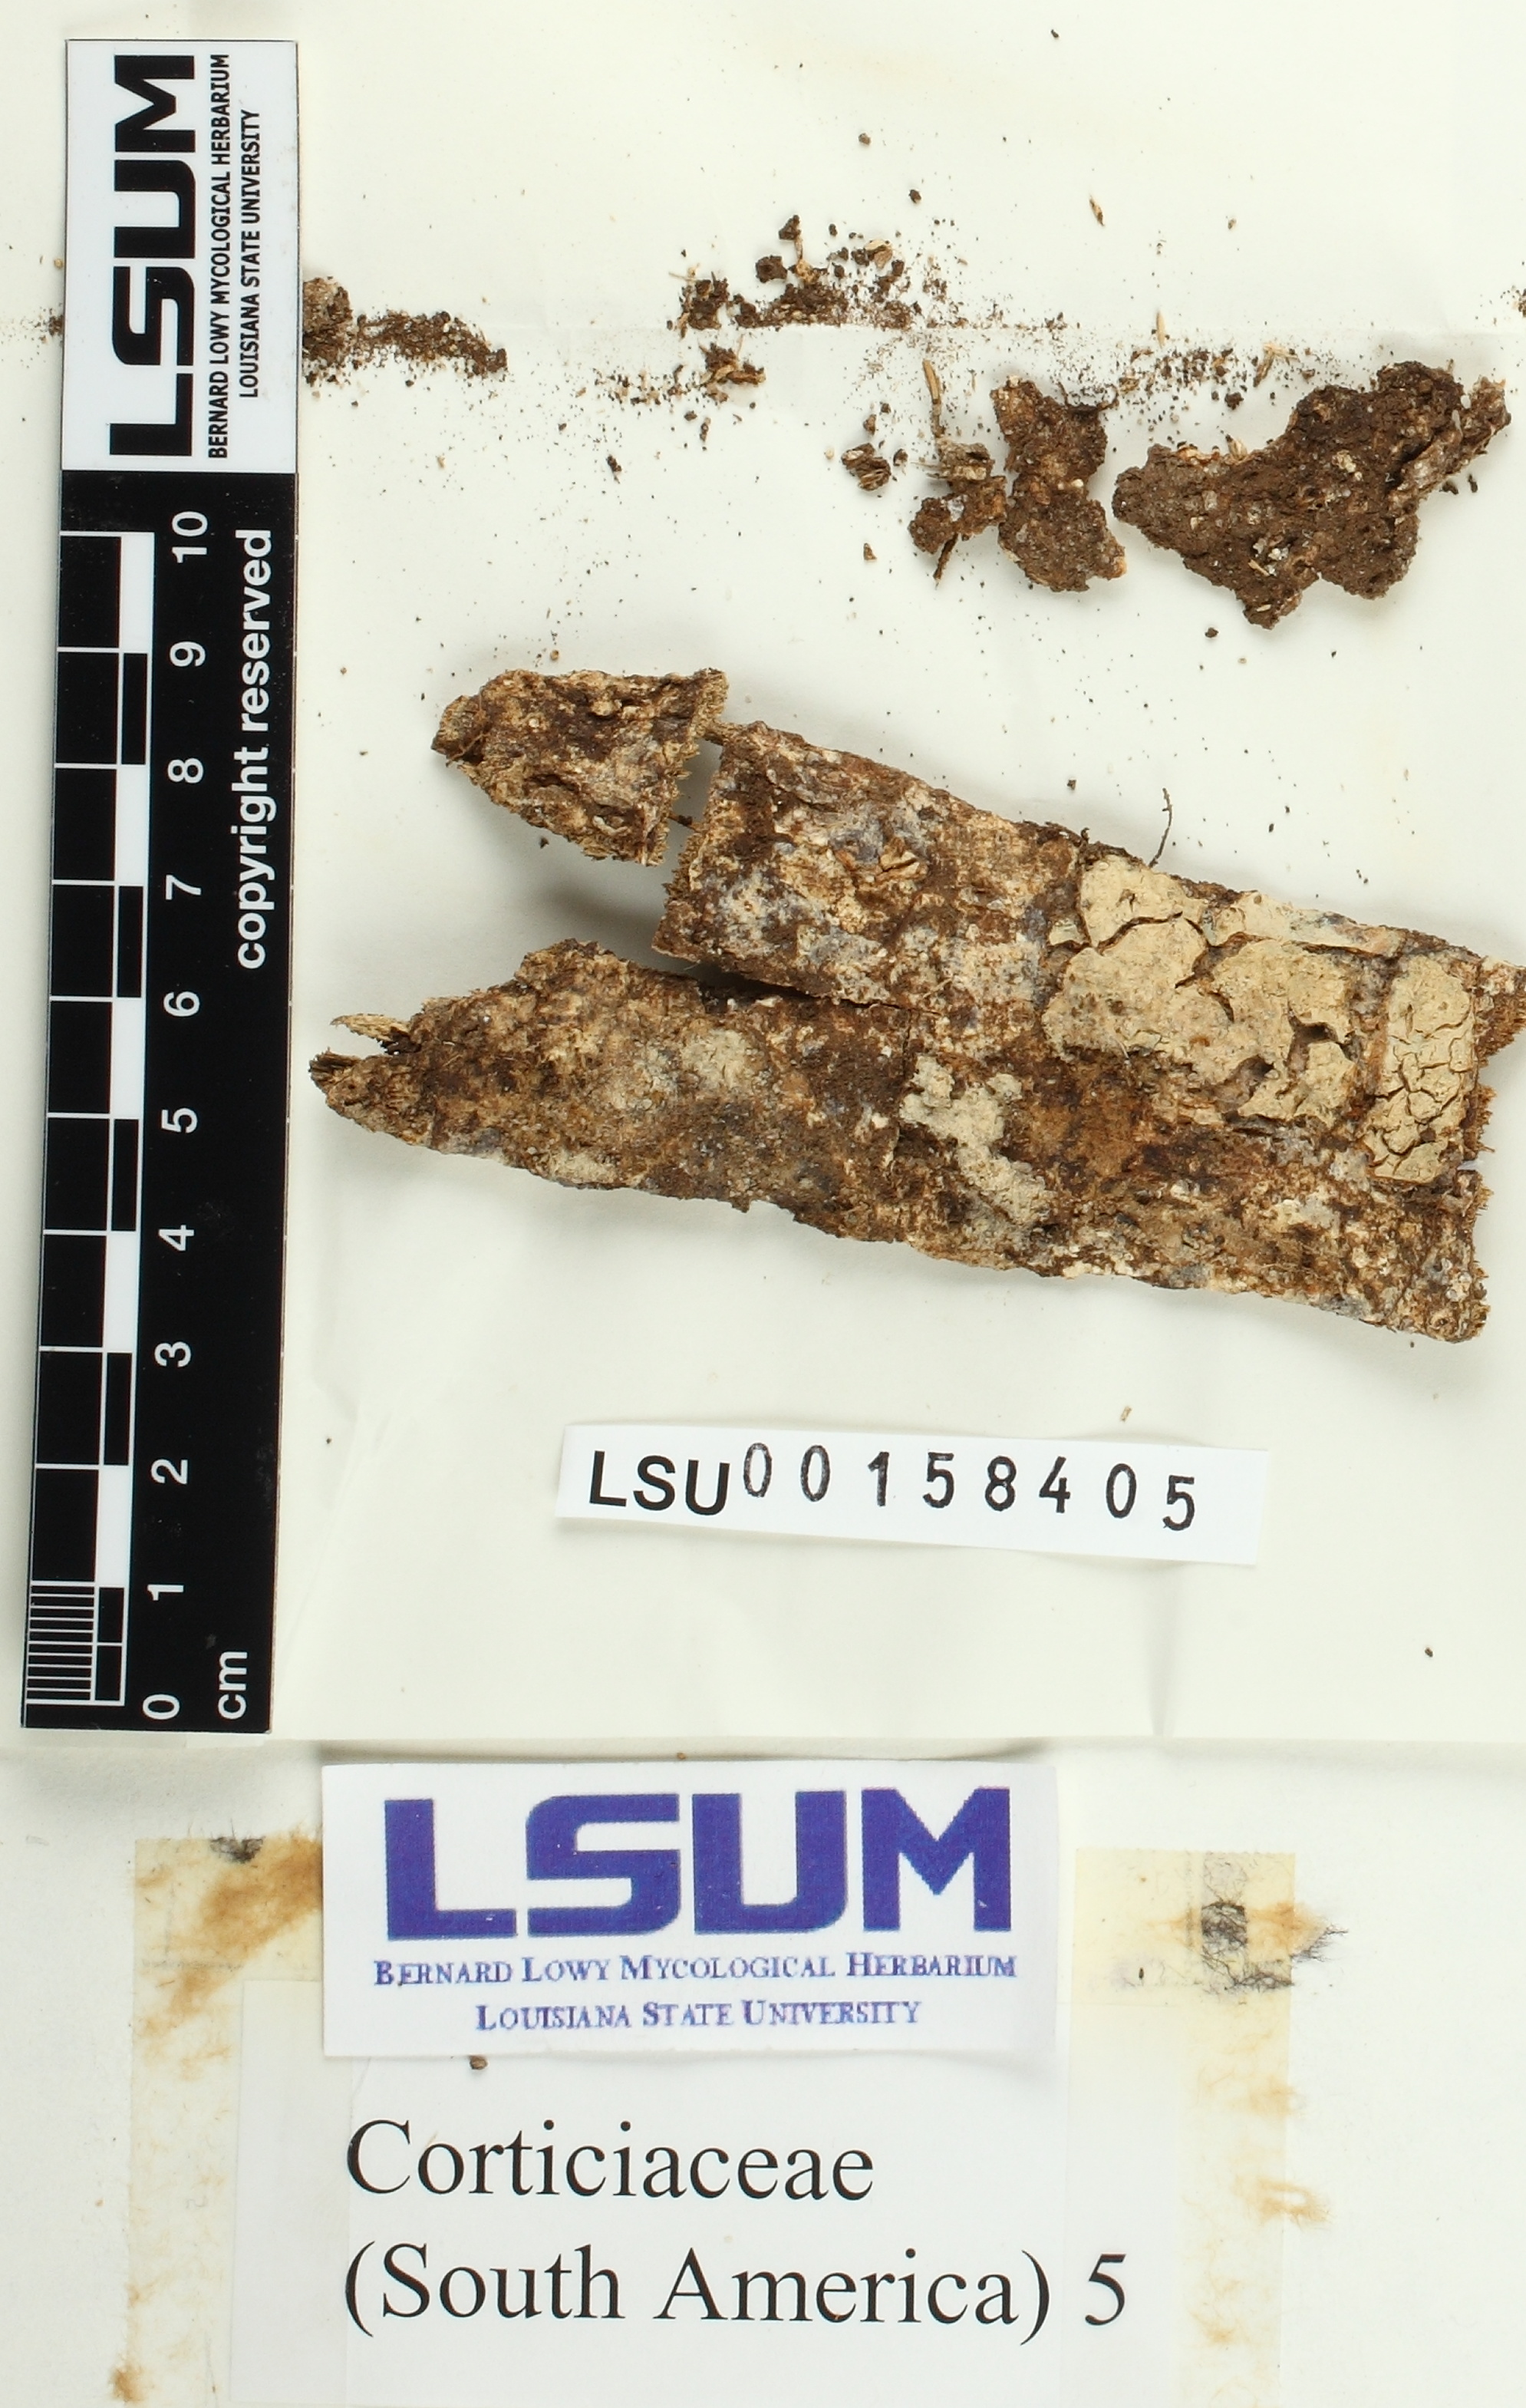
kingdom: Fungi
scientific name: Fungi
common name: Fungi
